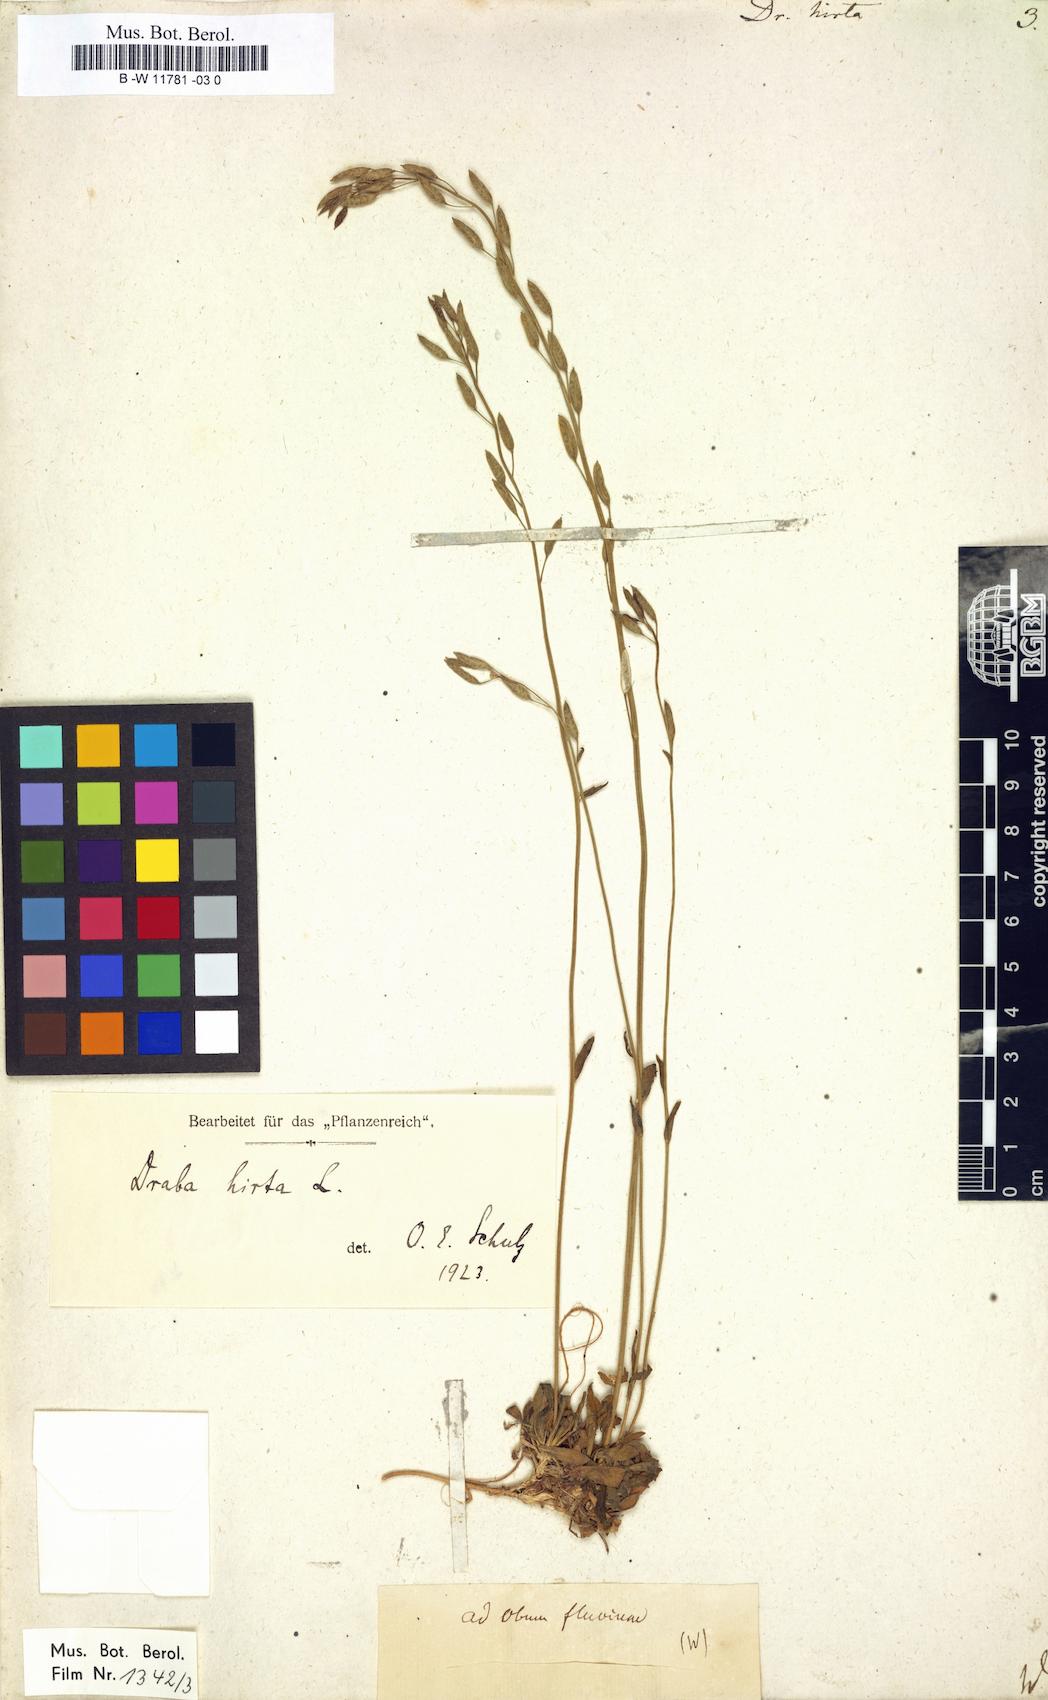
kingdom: Plantae
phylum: Tracheophyta
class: Magnoliopsida
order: Brassicales
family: Brassicaceae
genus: Draba
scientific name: Draba hirta
